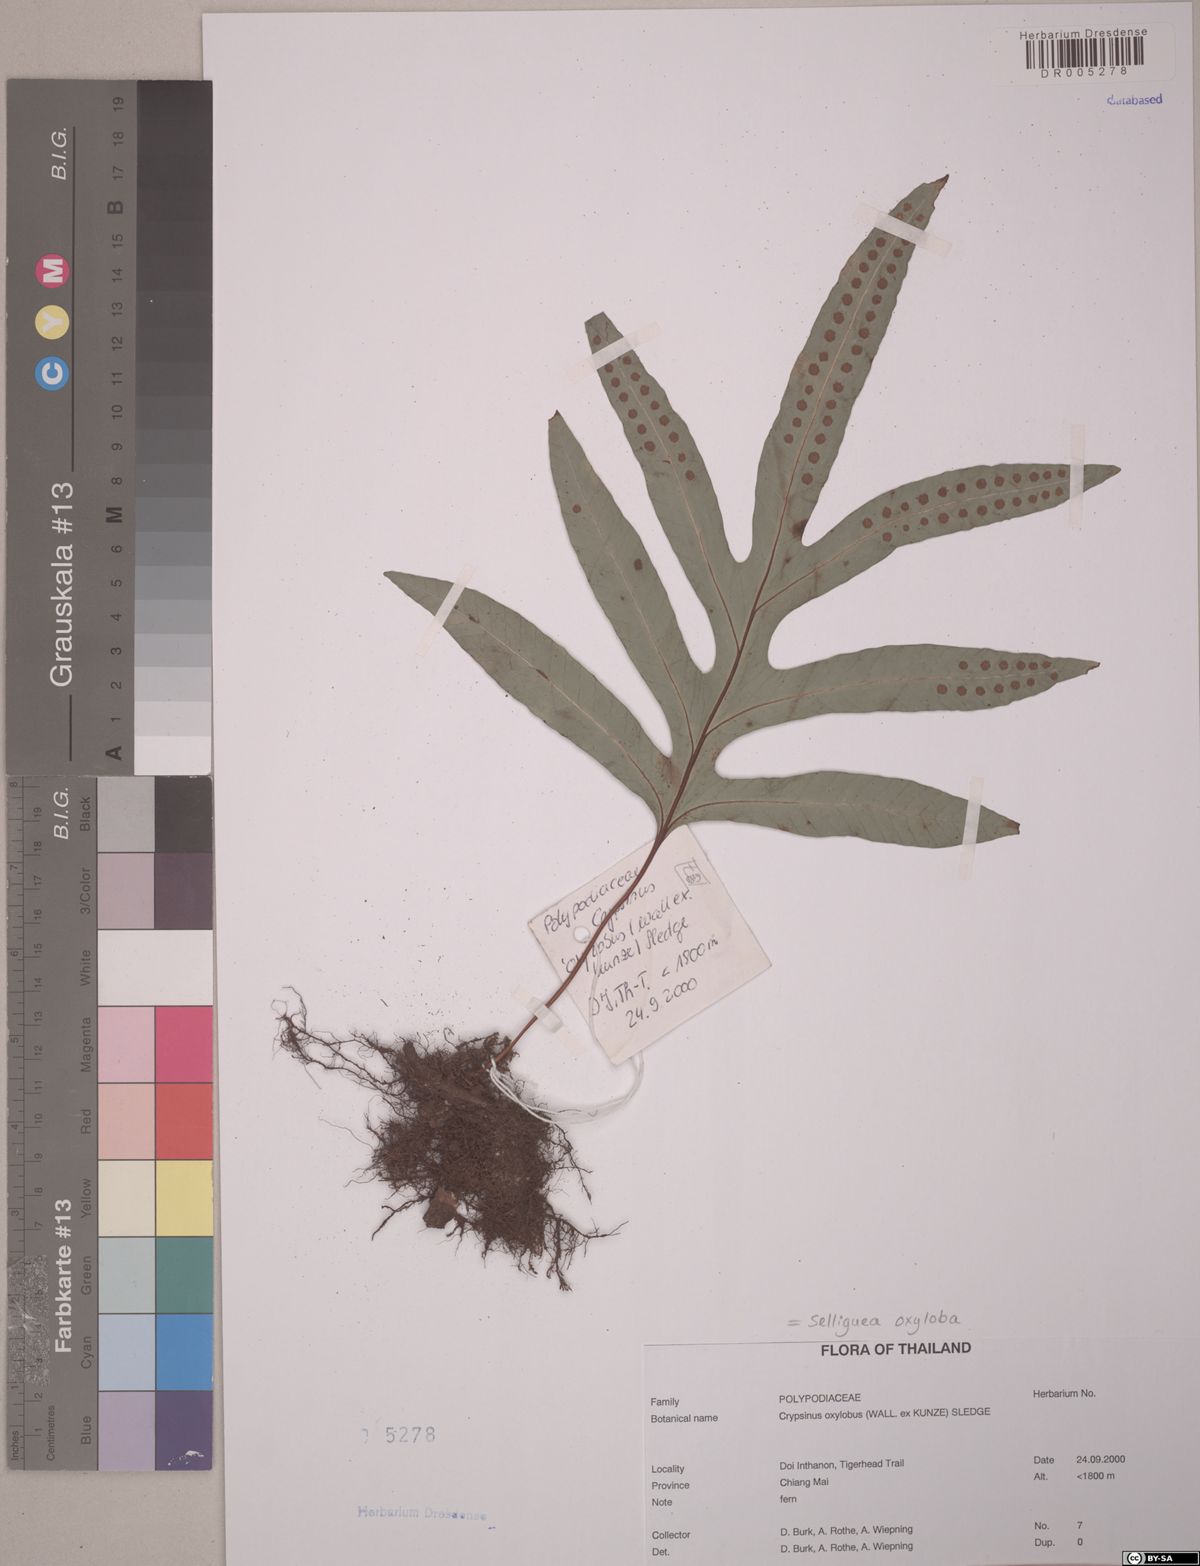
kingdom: Plantae
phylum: Tracheophyta
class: Polypodiopsida
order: Polypodiales
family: Polypodiaceae
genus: Selliguea
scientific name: Selliguea oxyloba
